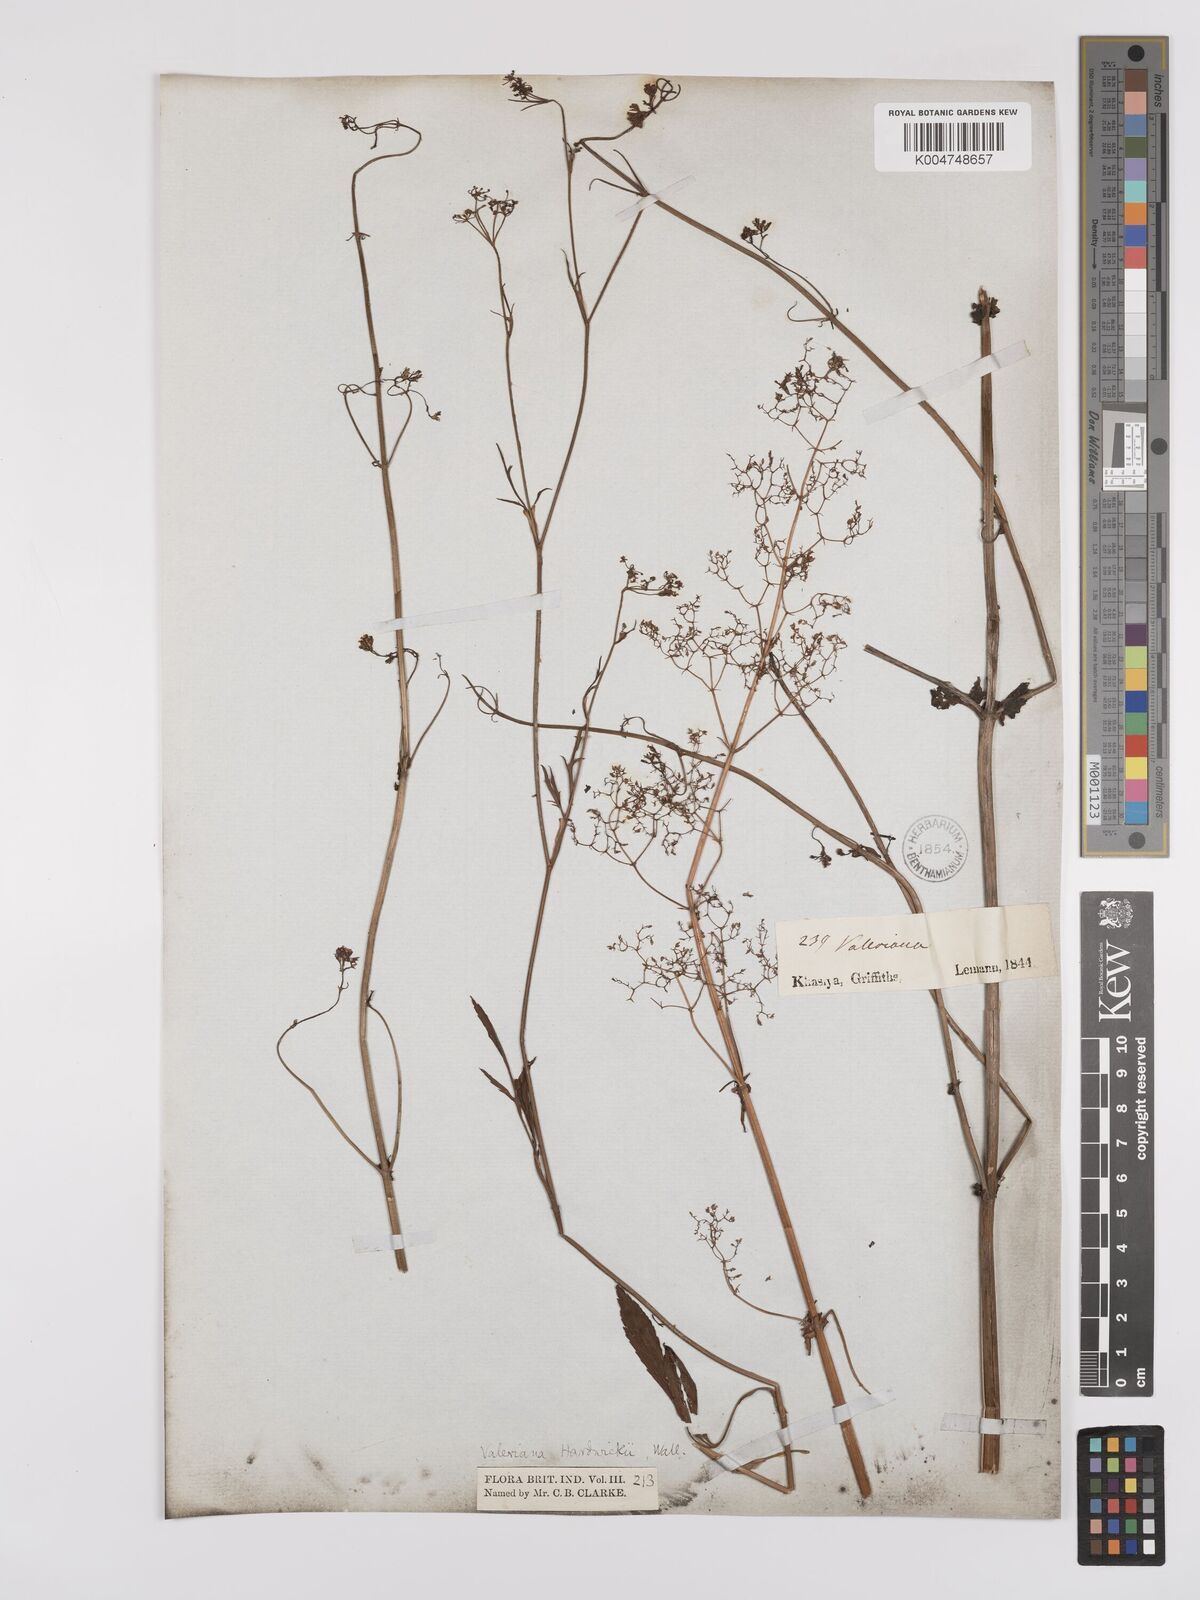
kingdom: Plantae
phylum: Tracheophyta
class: Magnoliopsida
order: Dipsacales
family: Caprifoliaceae
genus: Valeriana
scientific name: Valeriana hardwickei
